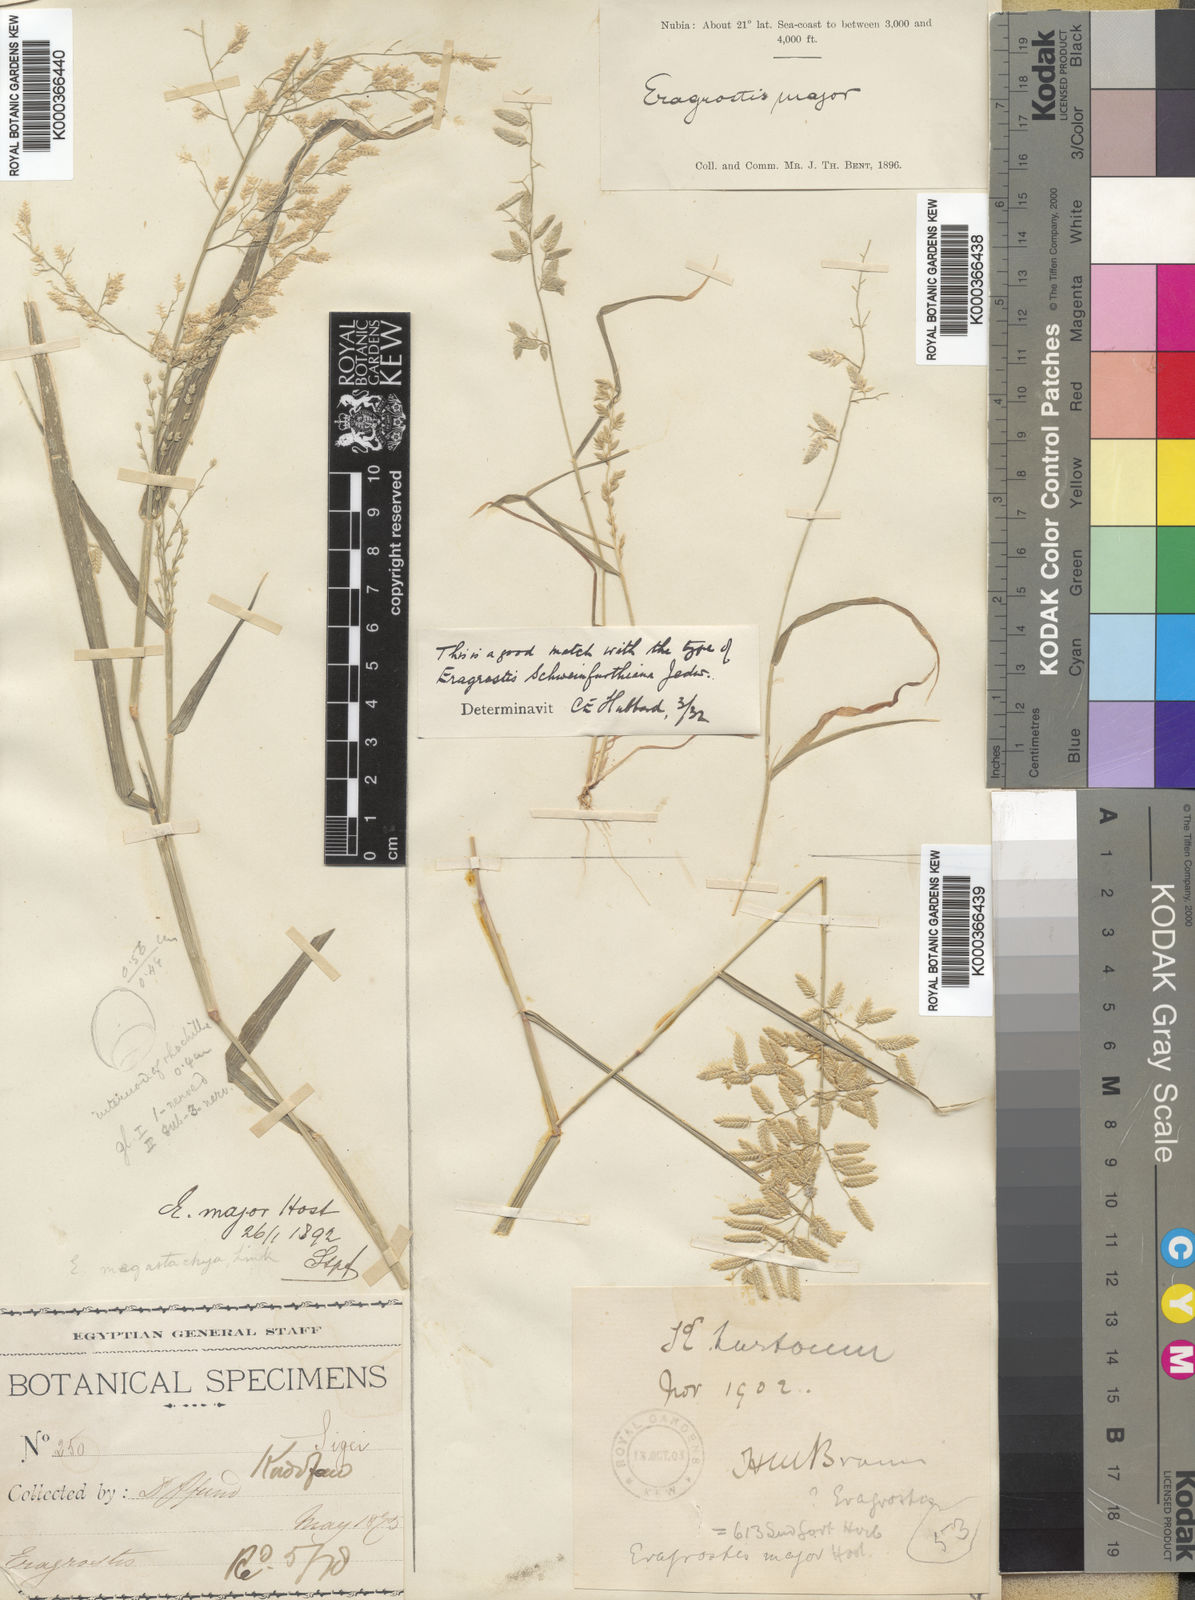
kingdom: Plantae
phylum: Tracheophyta
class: Liliopsida
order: Poales
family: Poaceae
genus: Eragrostis
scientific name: Eragrostis
